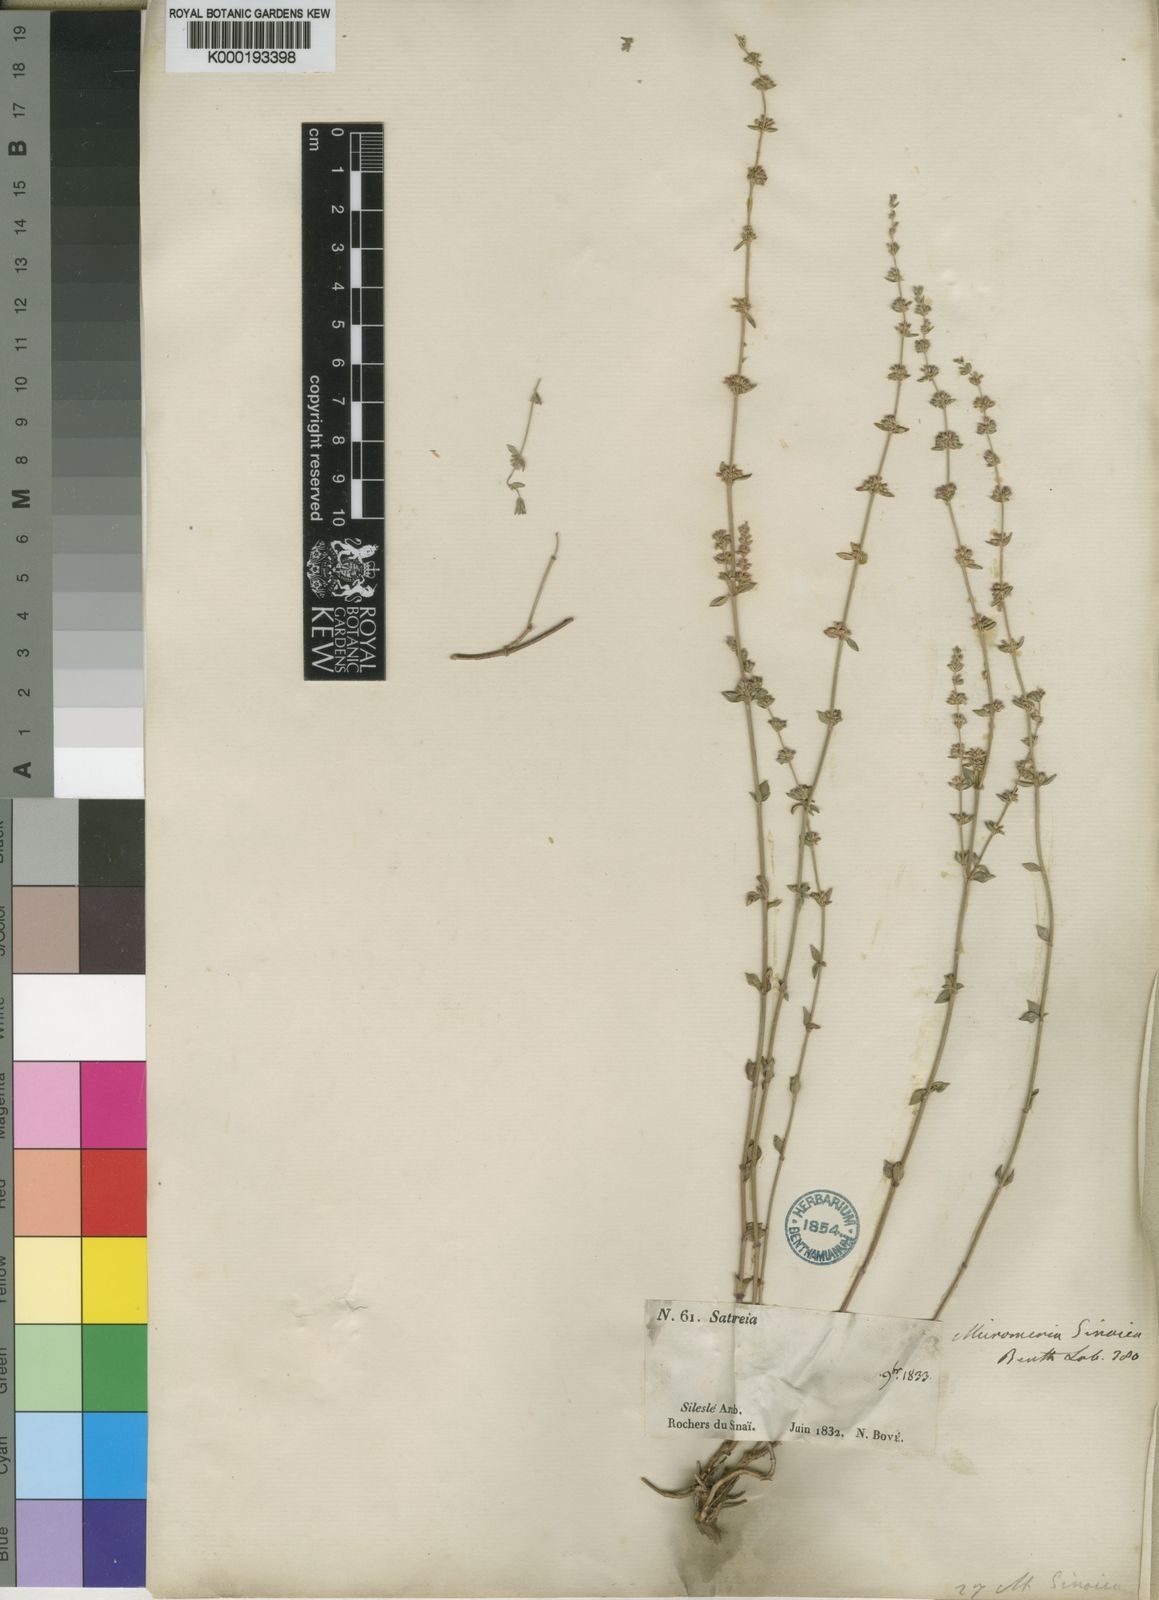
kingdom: Plantae
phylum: Tracheophyta
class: Magnoliopsida
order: Lamiales
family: Lamiaceae
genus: Micromeria
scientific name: Micromeria sinaica
